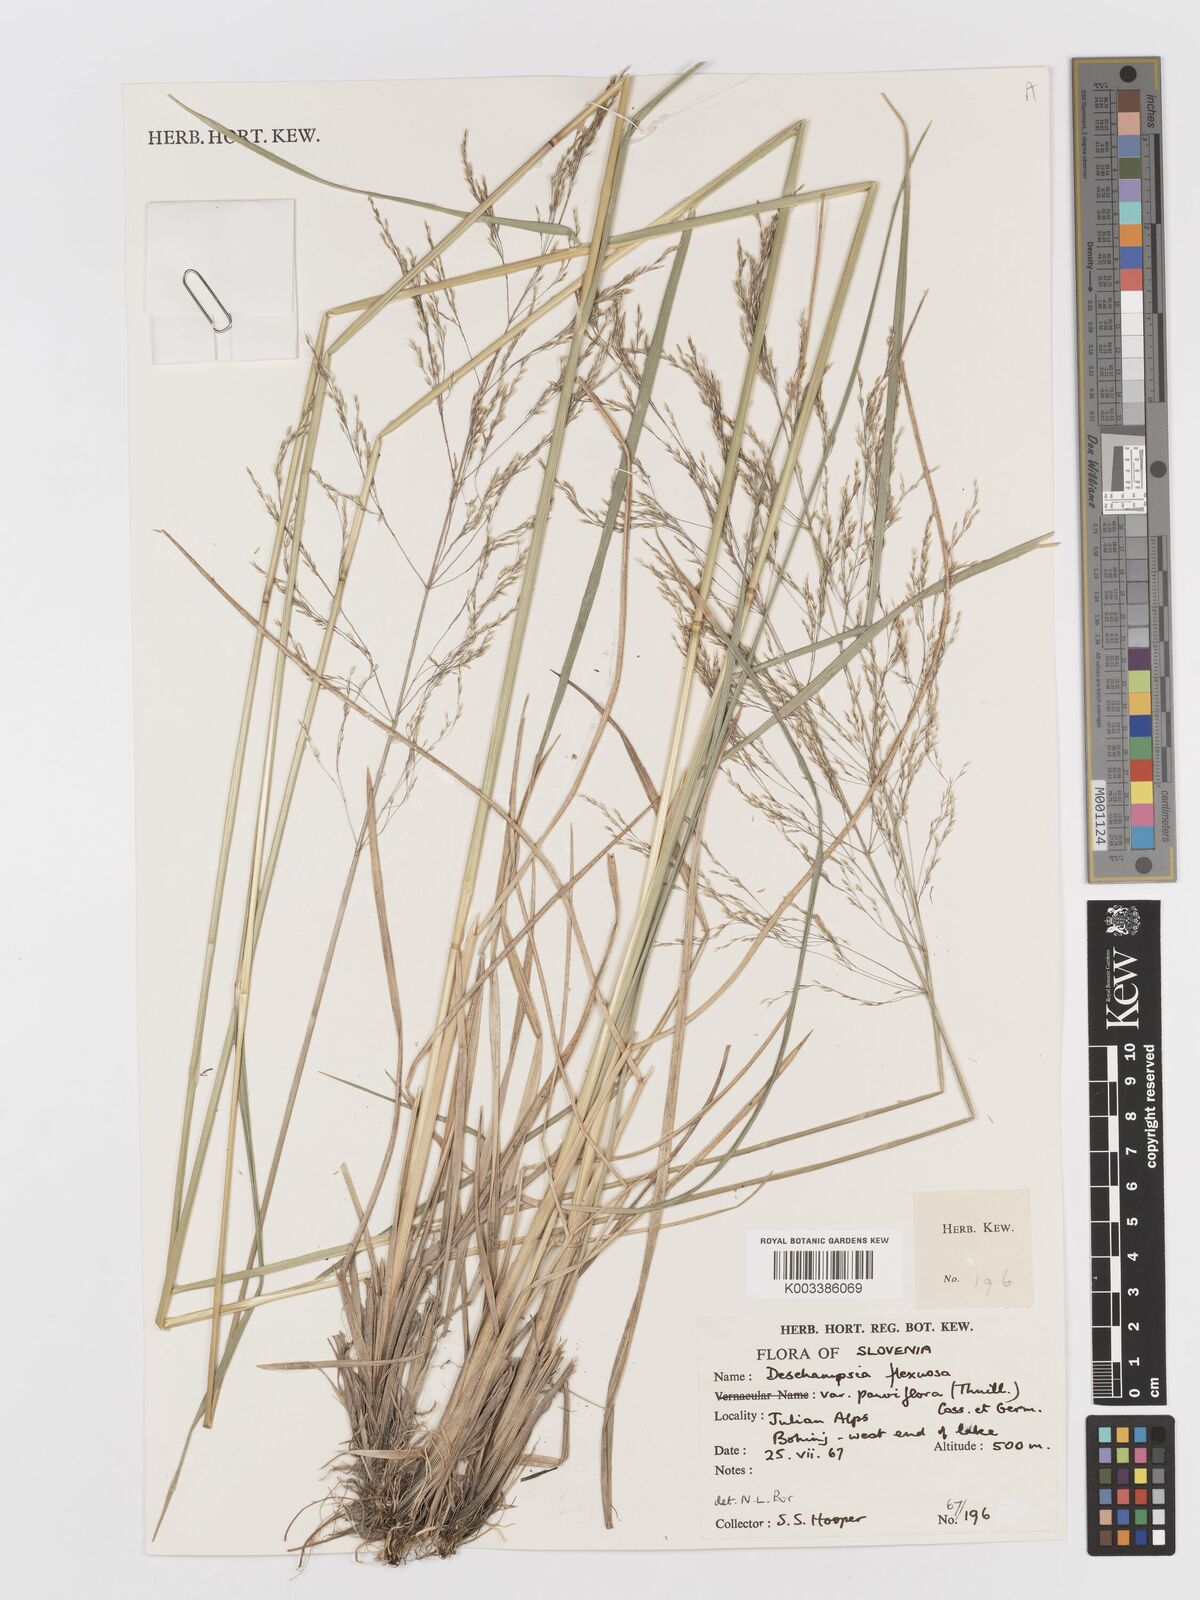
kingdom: Plantae
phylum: Tracheophyta
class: Liliopsida
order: Poales
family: Poaceae
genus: Avenella
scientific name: Avenella flexuosa
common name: Wavy hairgrass
